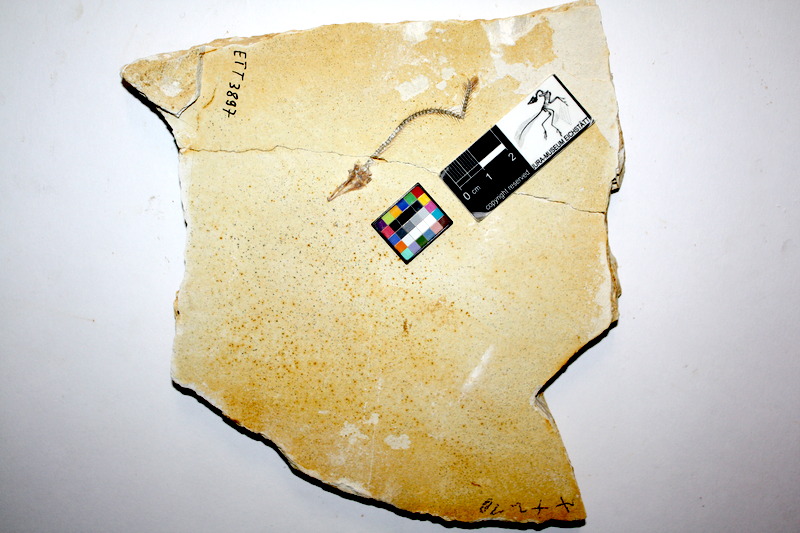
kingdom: Animalia
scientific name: Animalia
